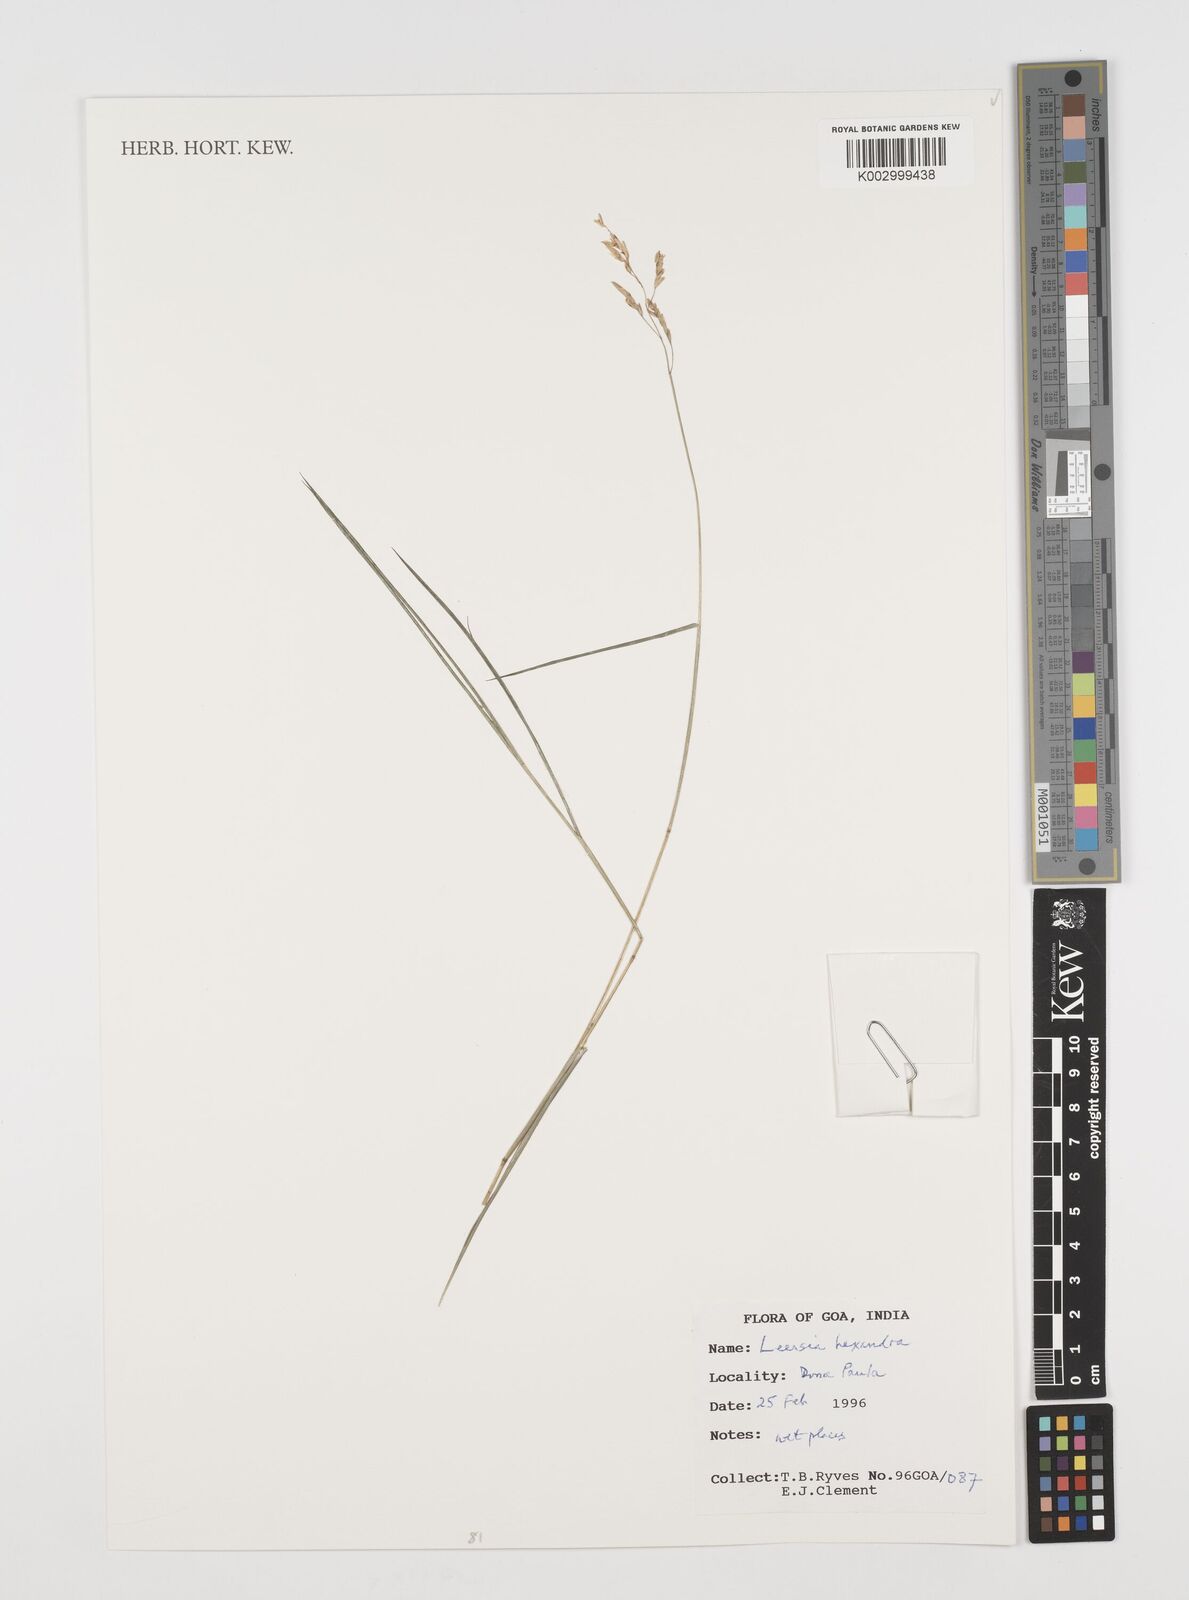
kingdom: Plantae
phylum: Tracheophyta
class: Liliopsida
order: Poales
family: Poaceae
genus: Leersia
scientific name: Leersia hexandra
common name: Southern cut grass
